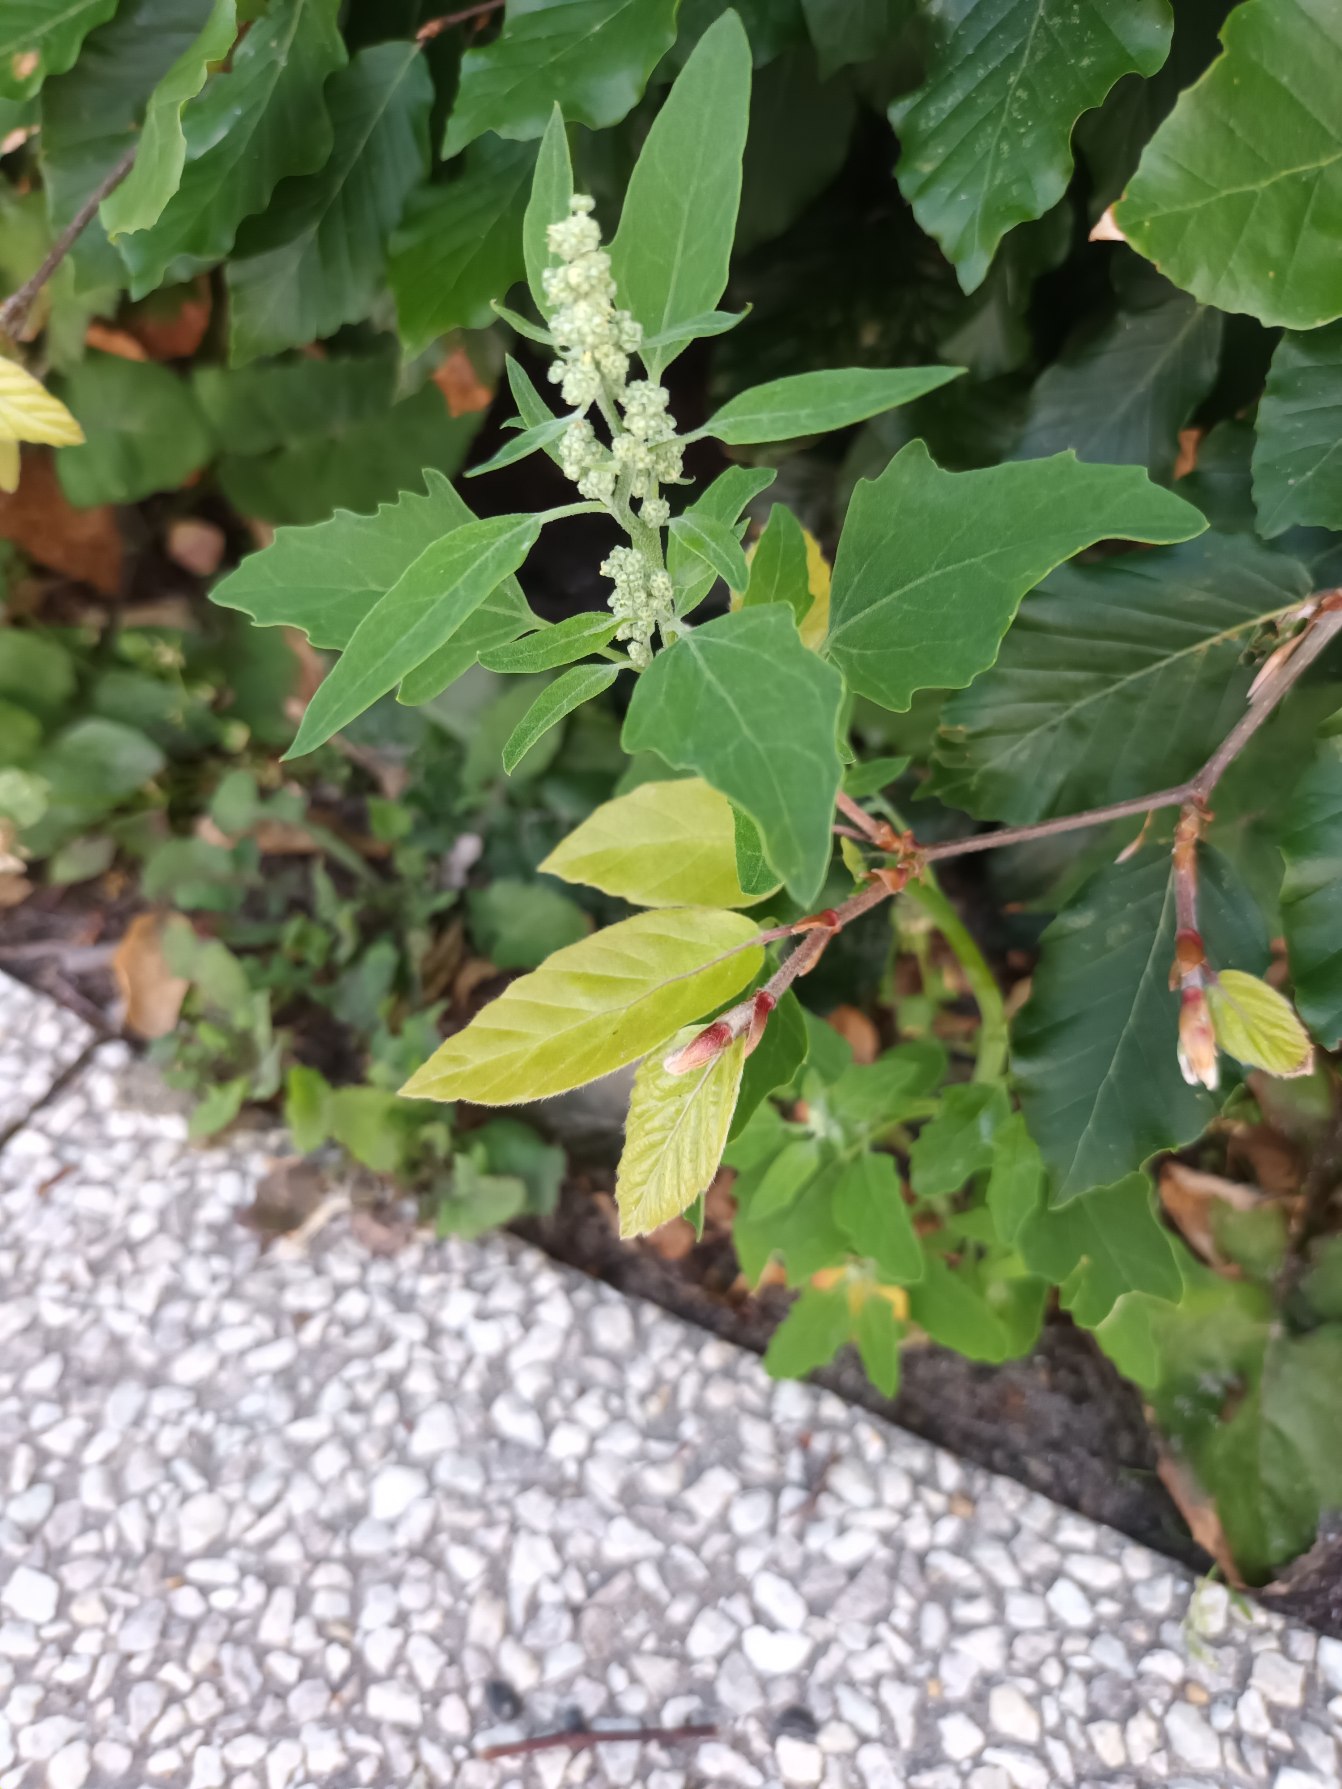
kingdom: Plantae
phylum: Tracheophyta
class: Magnoliopsida
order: Caryophyllales
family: Amaranthaceae
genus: Chenopodium
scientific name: Chenopodium album
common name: Hvidmelet gåsefod
